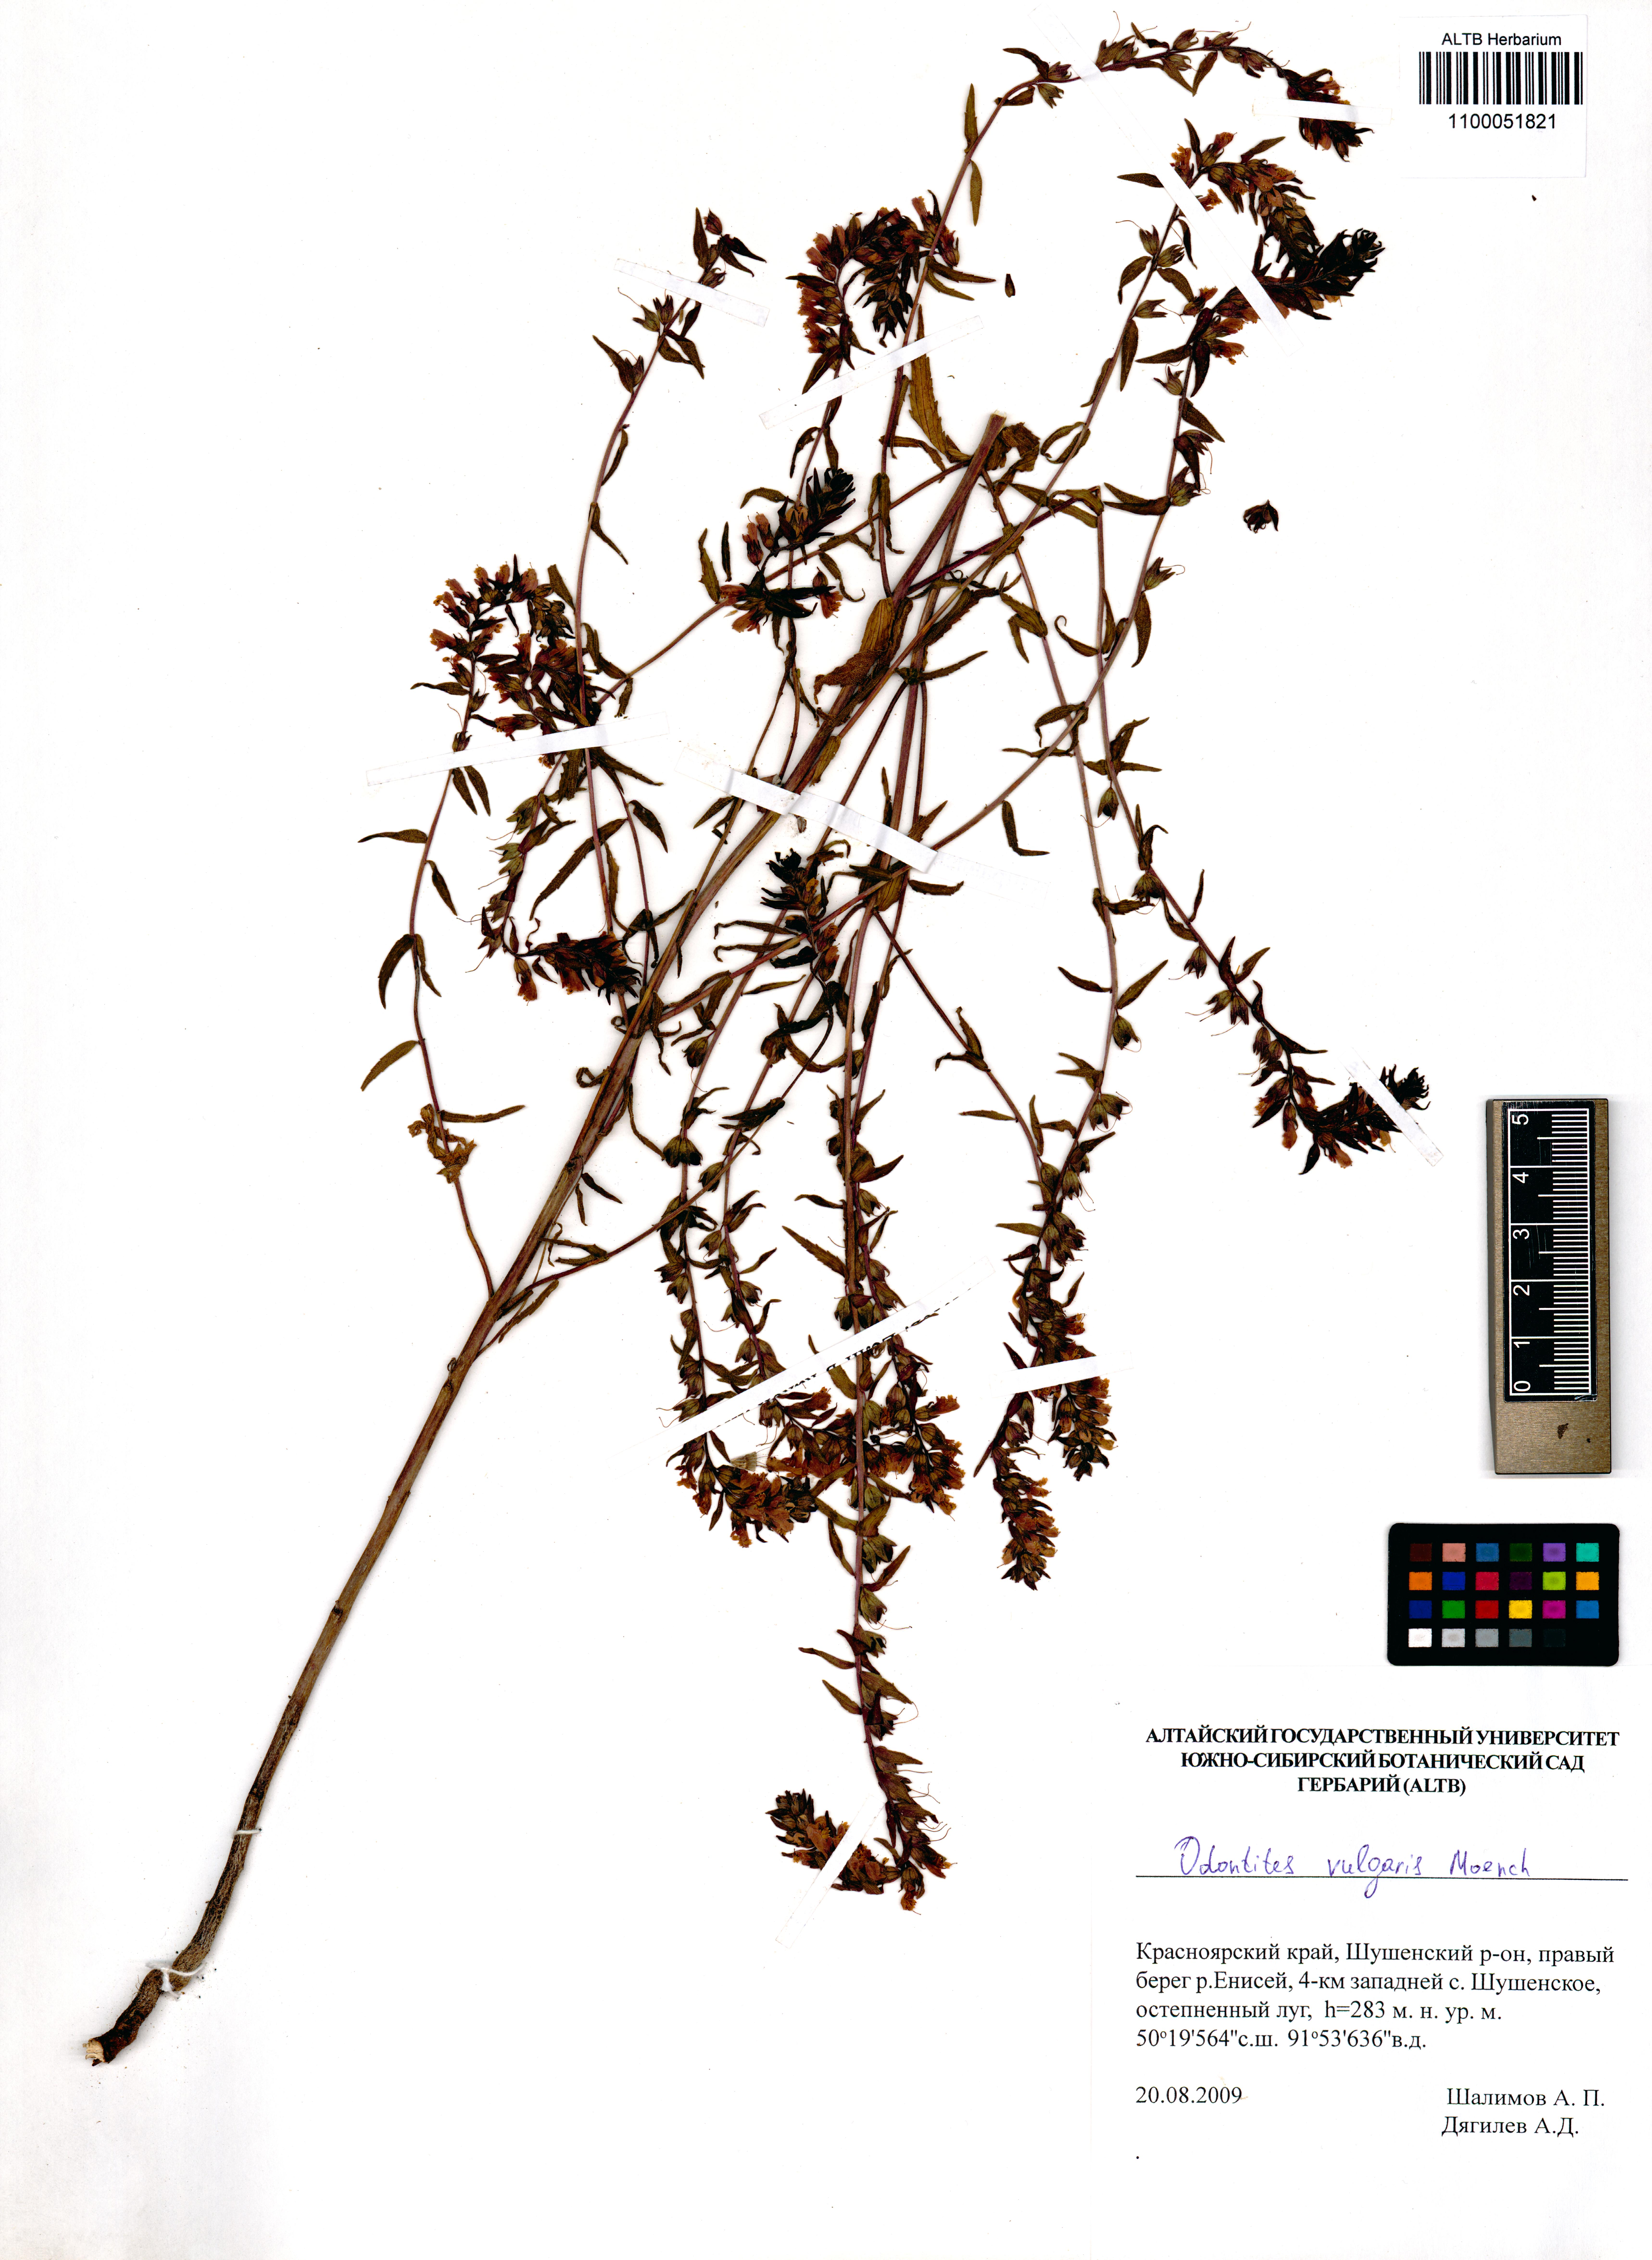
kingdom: Plantae
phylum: Tracheophyta
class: Magnoliopsida
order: Lamiales
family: Orobanchaceae
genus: Odontites
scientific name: Odontites vulgaris
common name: Broomrape
